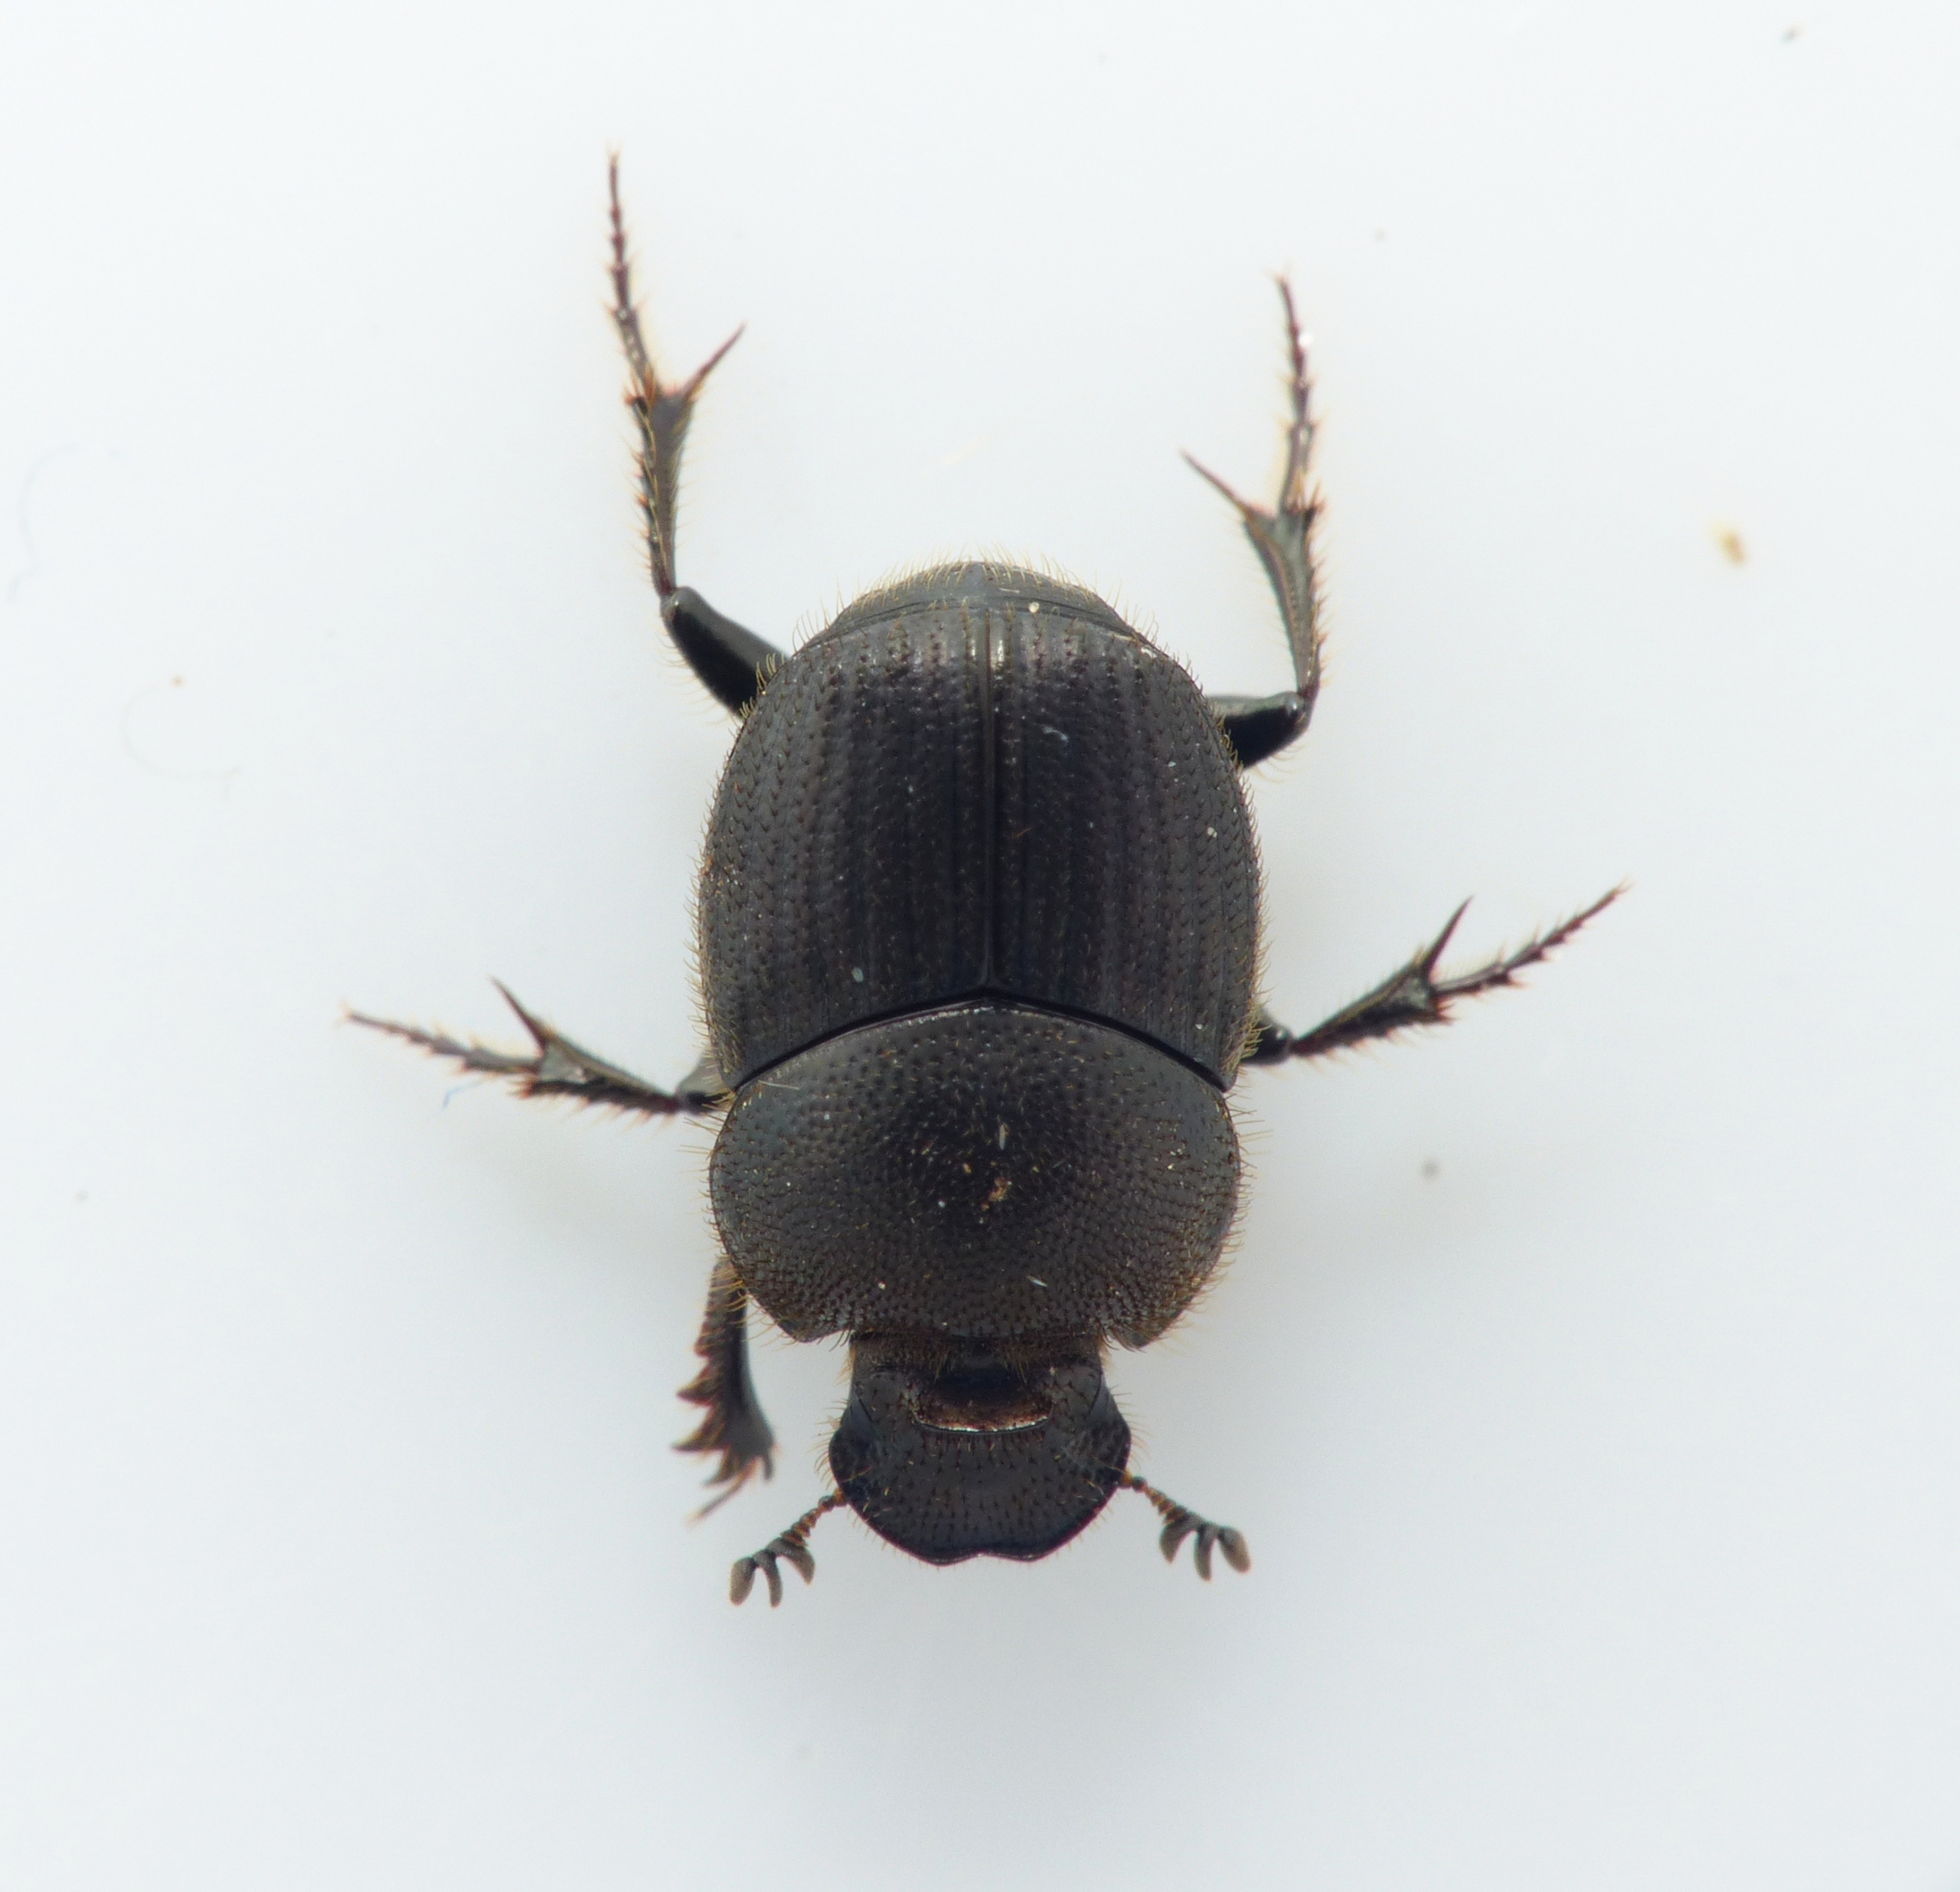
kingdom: Animalia
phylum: Arthropoda
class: Insecta
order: Coleoptera
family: Scarabaeidae
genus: Onthophagus
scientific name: Onthophagus joannae
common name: Hjortemøggraver
